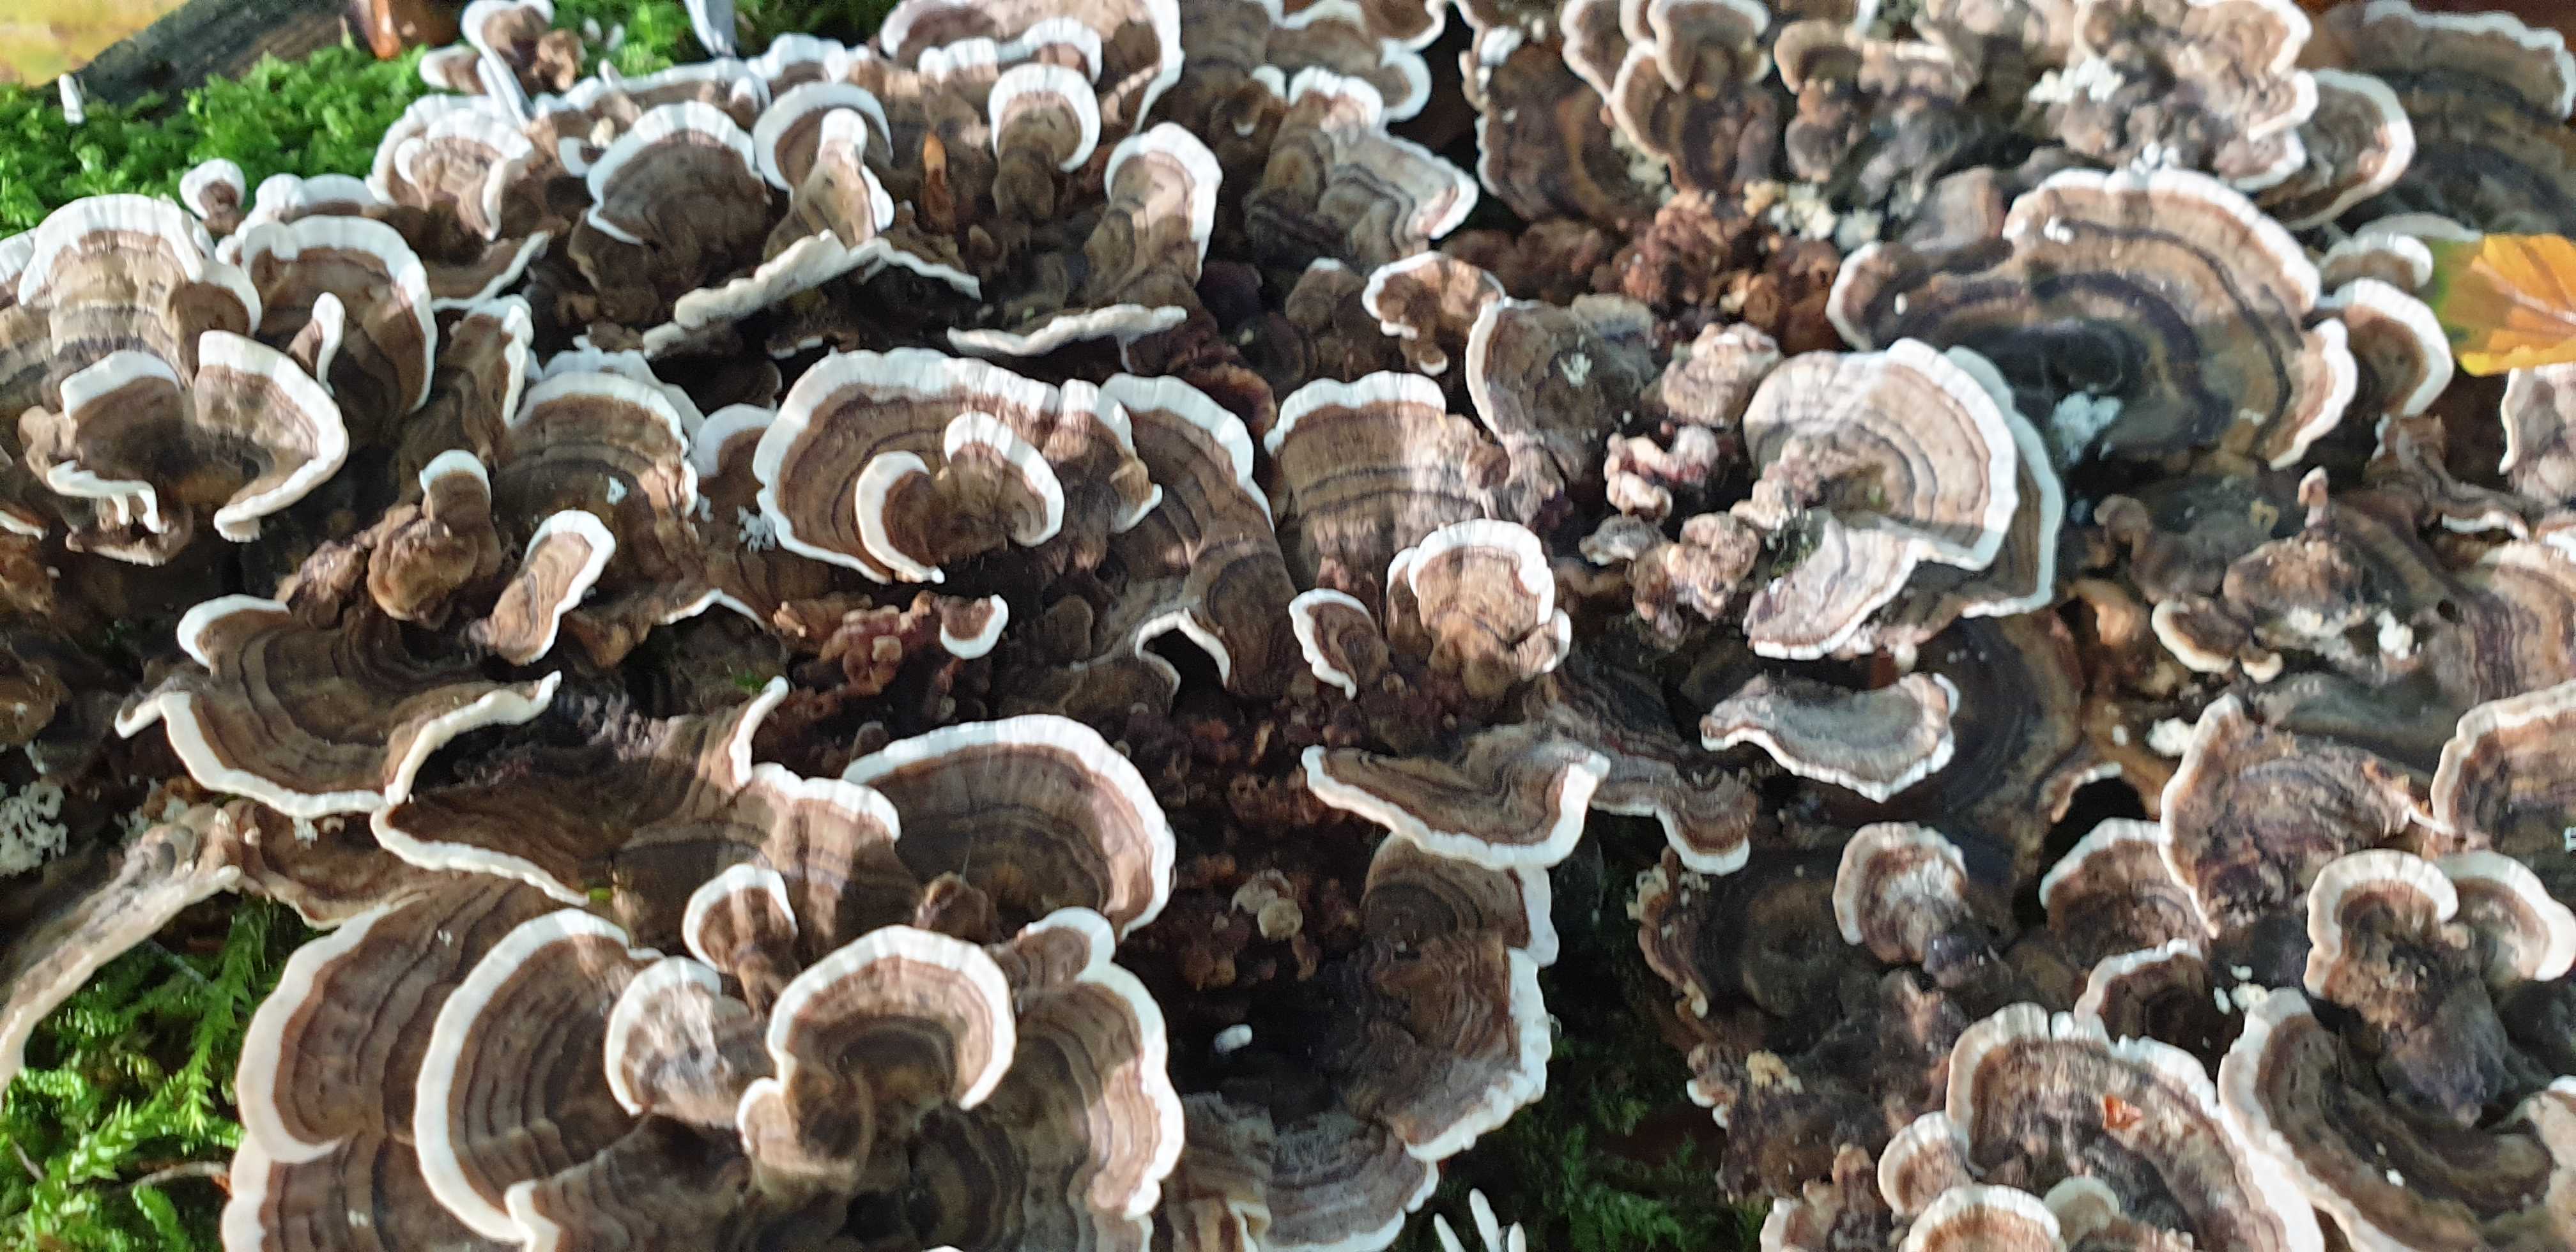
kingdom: Fungi
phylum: Basidiomycota
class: Agaricomycetes
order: Polyporales
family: Polyporaceae
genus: Trametes
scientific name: Trametes versicolor
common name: broget læderporesvamp
